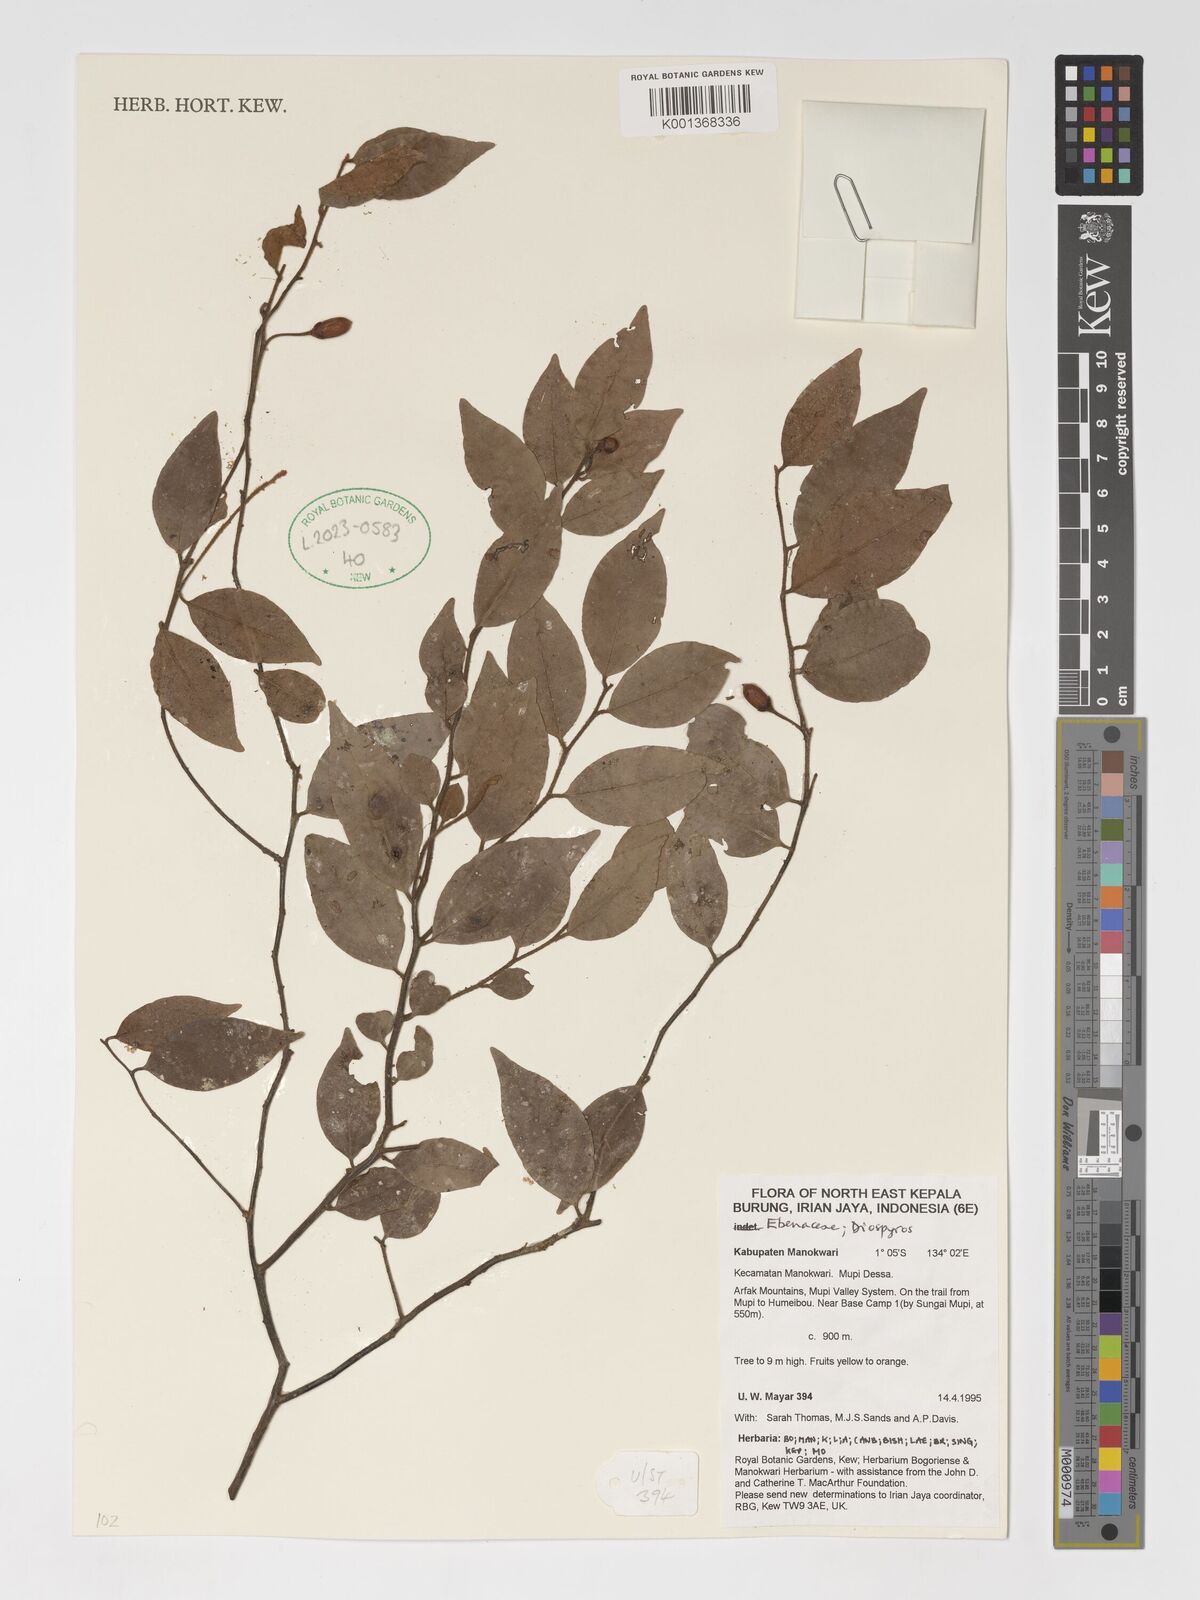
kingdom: Plantae
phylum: Tracheophyta
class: Magnoliopsida
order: Ericales
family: Ebenaceae
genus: Diospyros
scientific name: Diospyros
